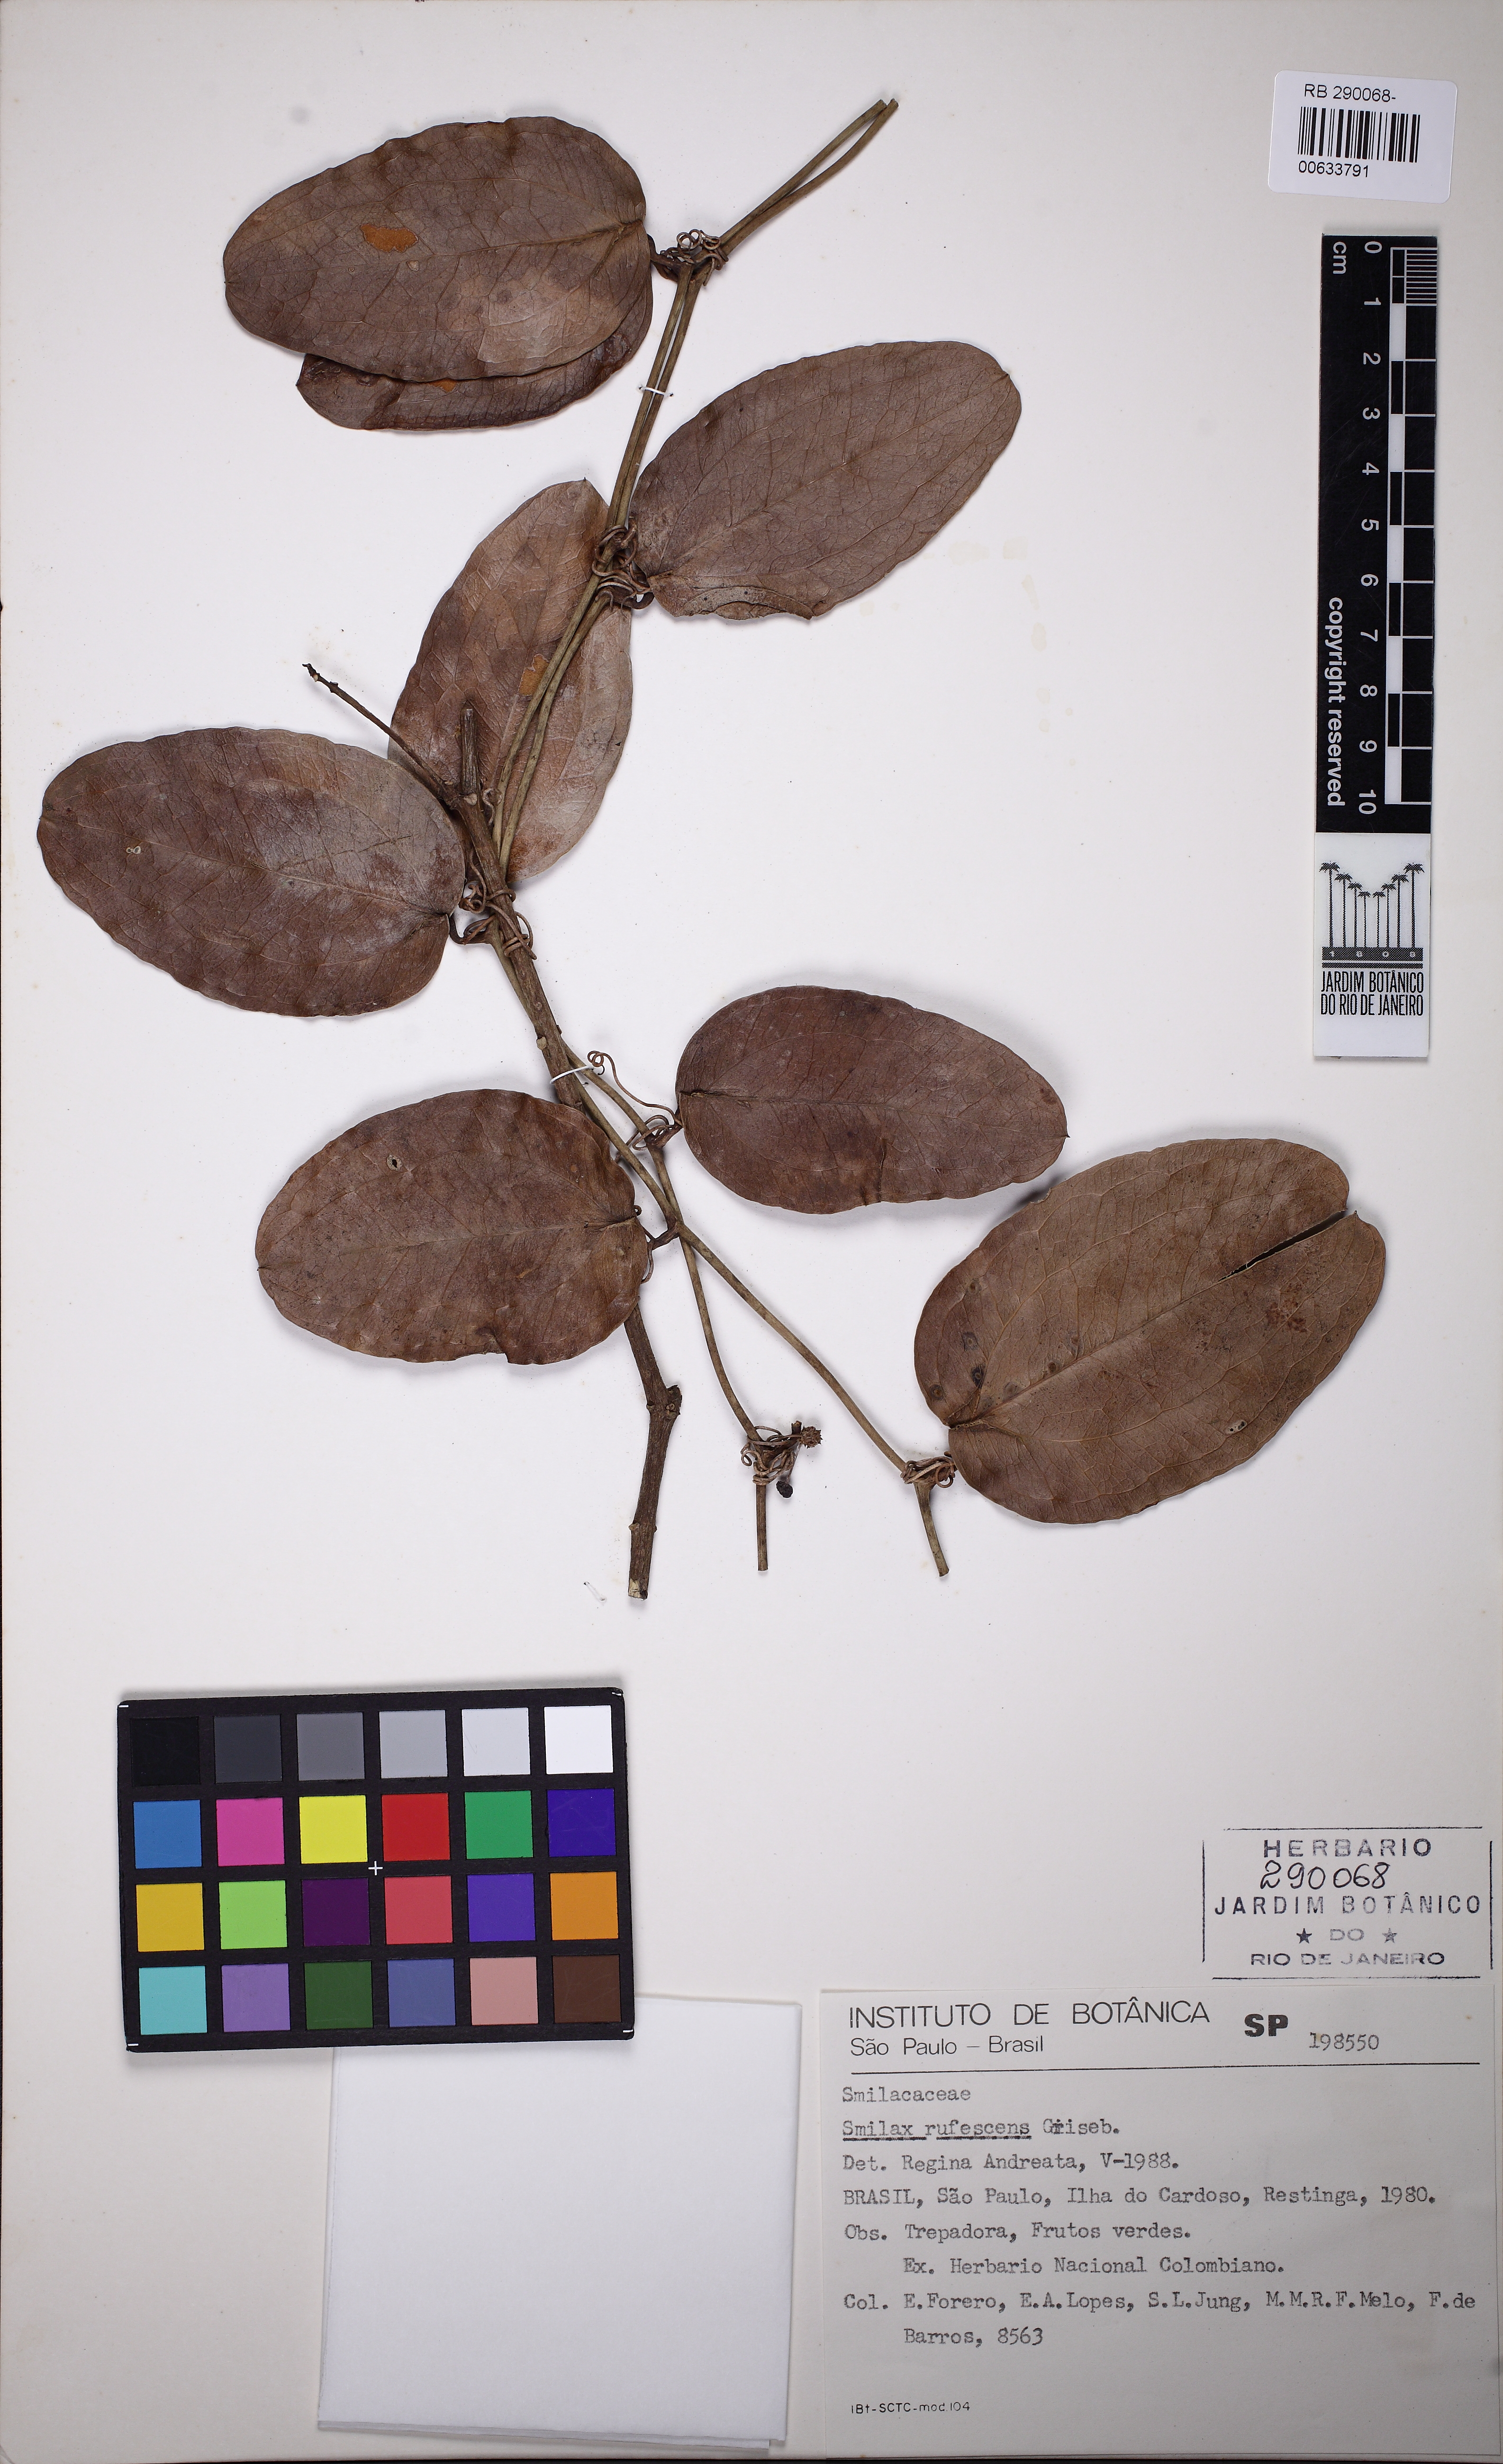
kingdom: Plantae
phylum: Tracheophyta
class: Liliopsida
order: Liliales
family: Smilacaceae
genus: Smilax
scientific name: Smilax rufescens
